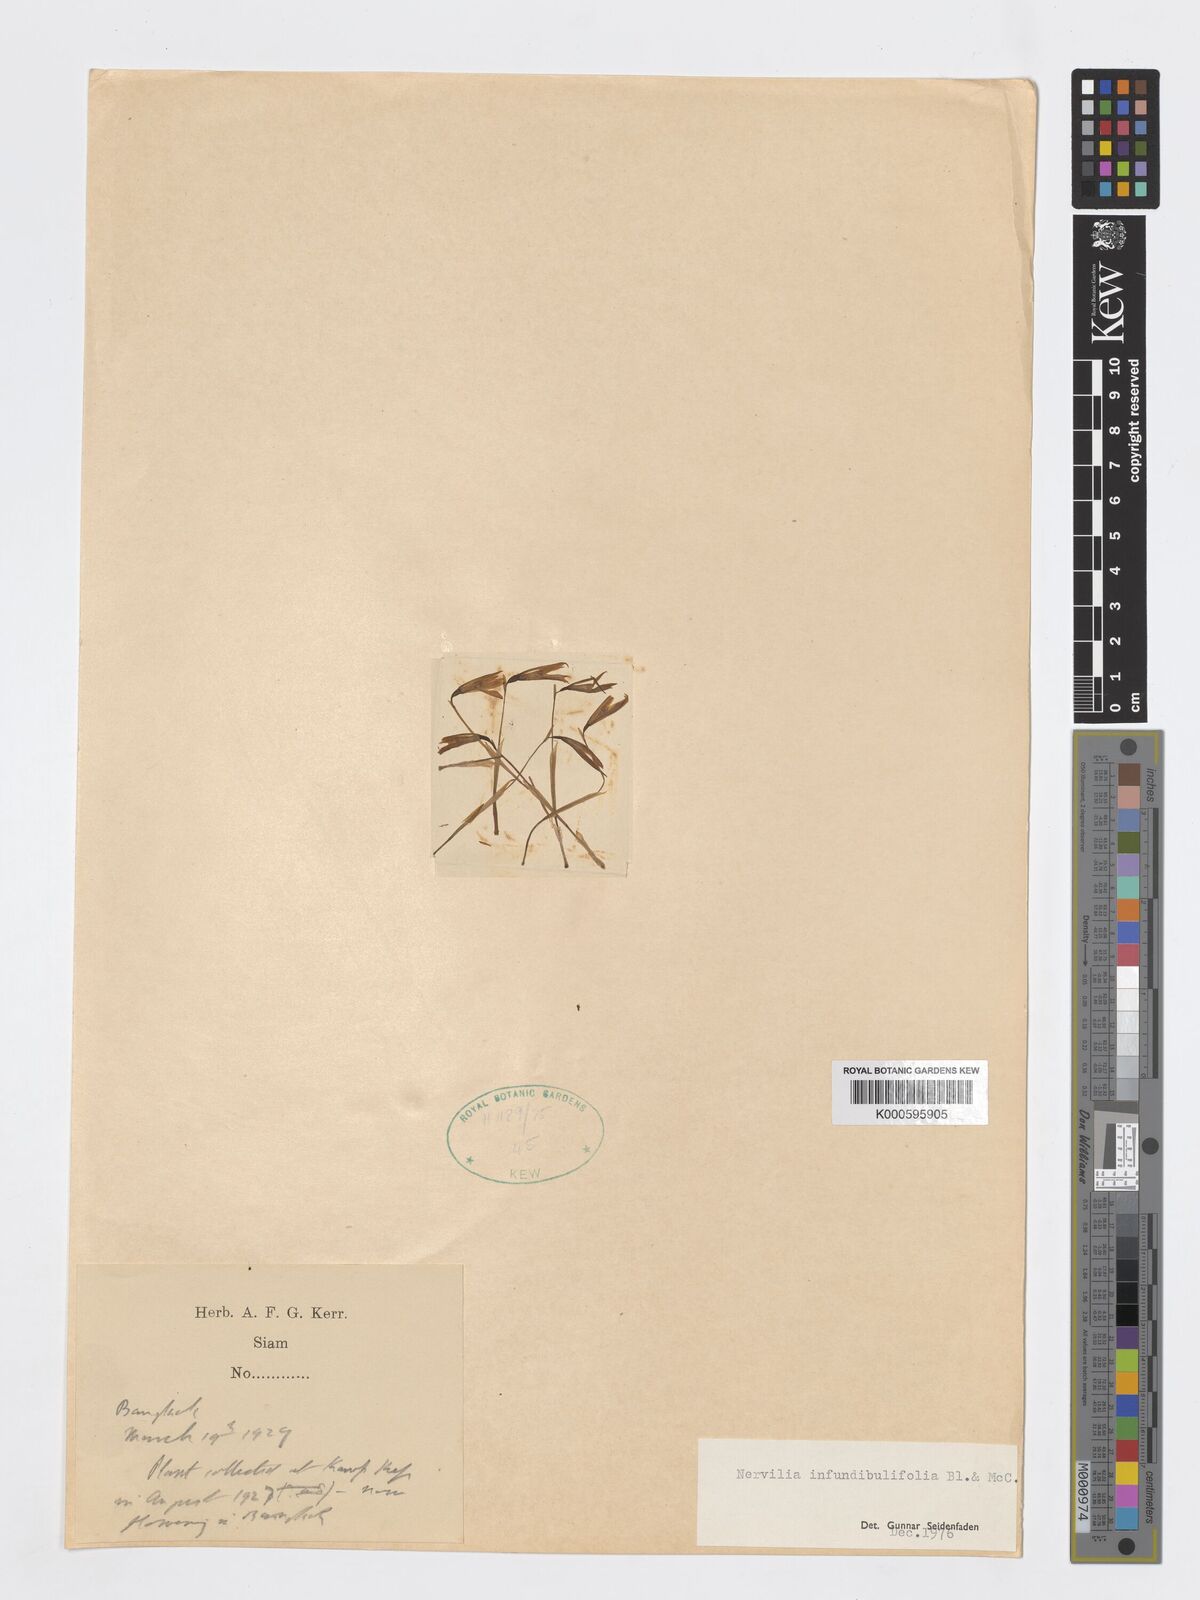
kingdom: Plantae
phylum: Tracheophyta
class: Liliopsida
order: Asparagales
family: Orchidaceae
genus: Nervilia
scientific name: Nervilia infundibulifolia
